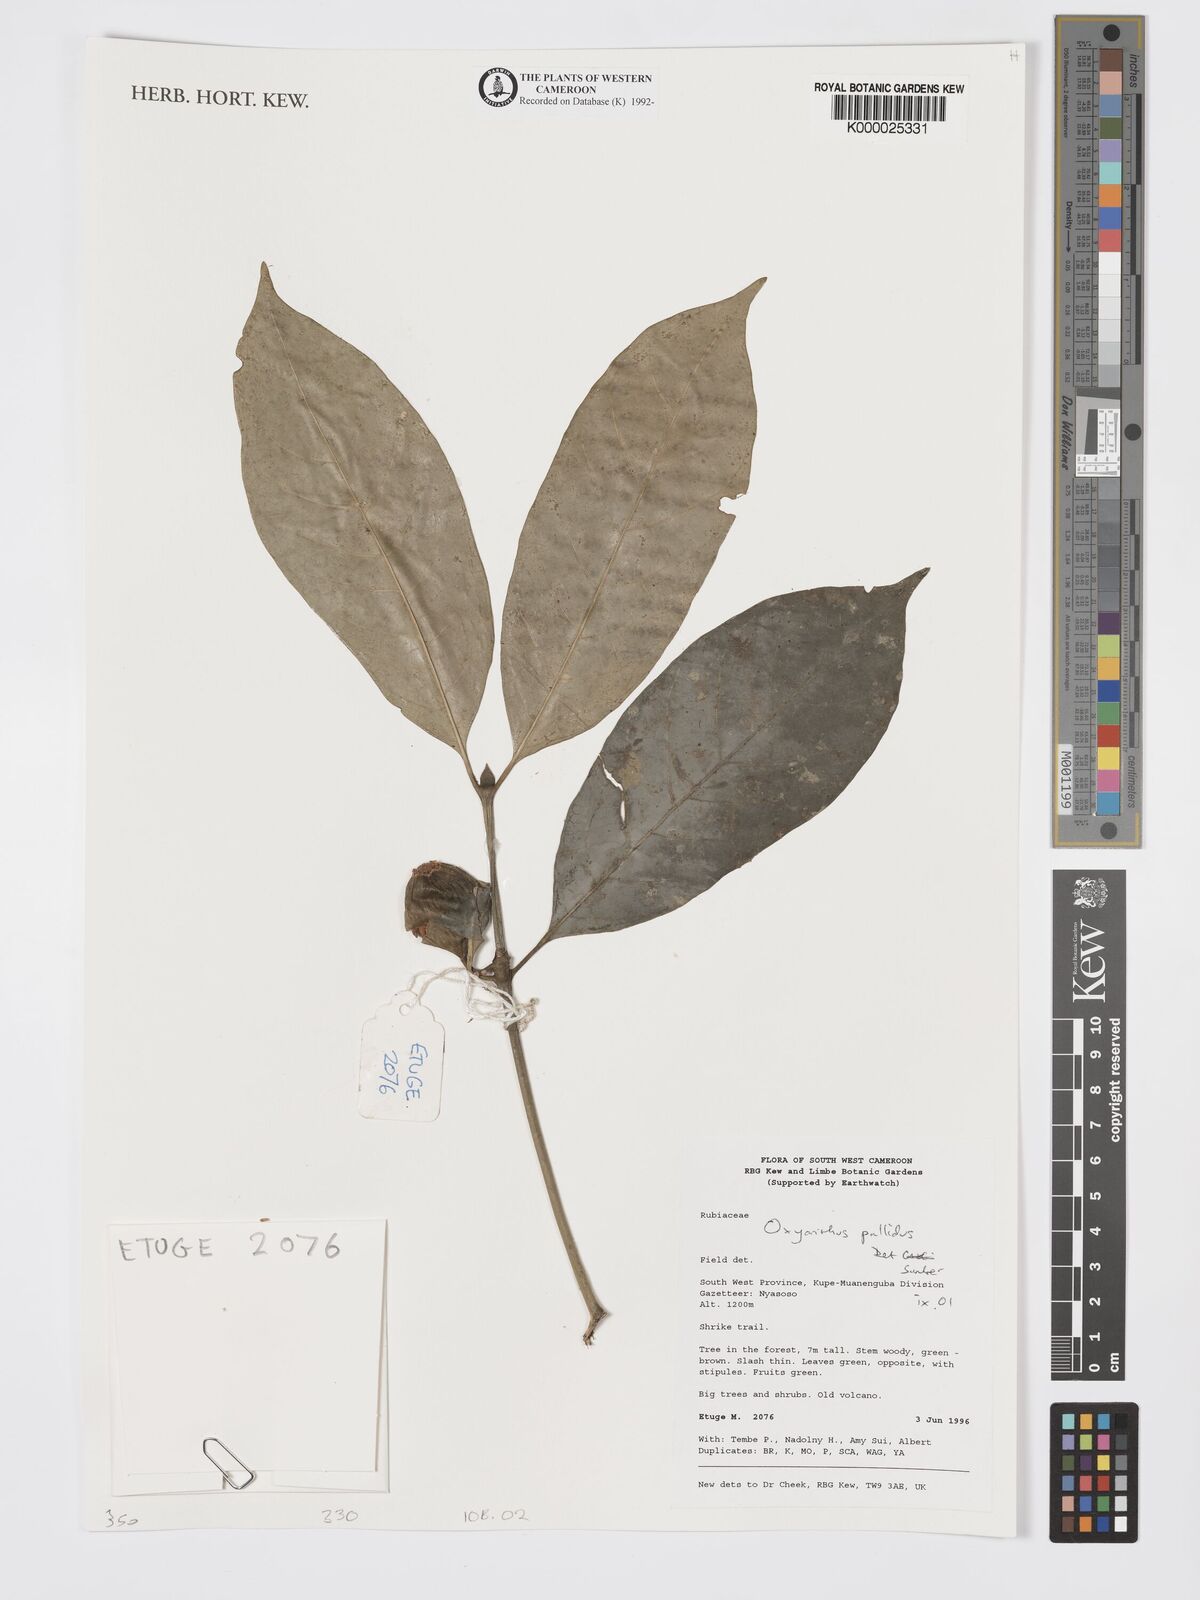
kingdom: Plantae
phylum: Tracheophyta
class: Magnoliopsida
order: Gentianales
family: Rubiaceae
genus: Oxyanthus
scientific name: Oxyanthus pallidus
